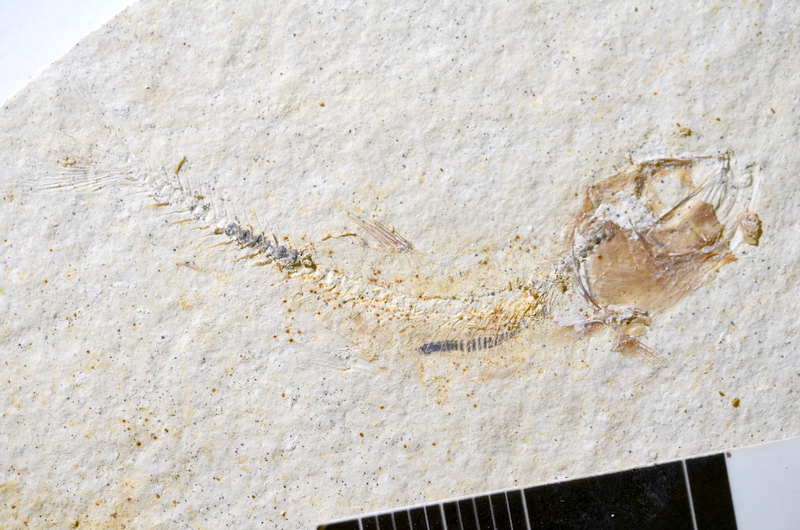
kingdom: Animalia
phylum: Chordata
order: Salmoniformes
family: Orthogonikleithridae
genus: Orthogonikleithrus
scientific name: Orthogonikleithrus hoelli
